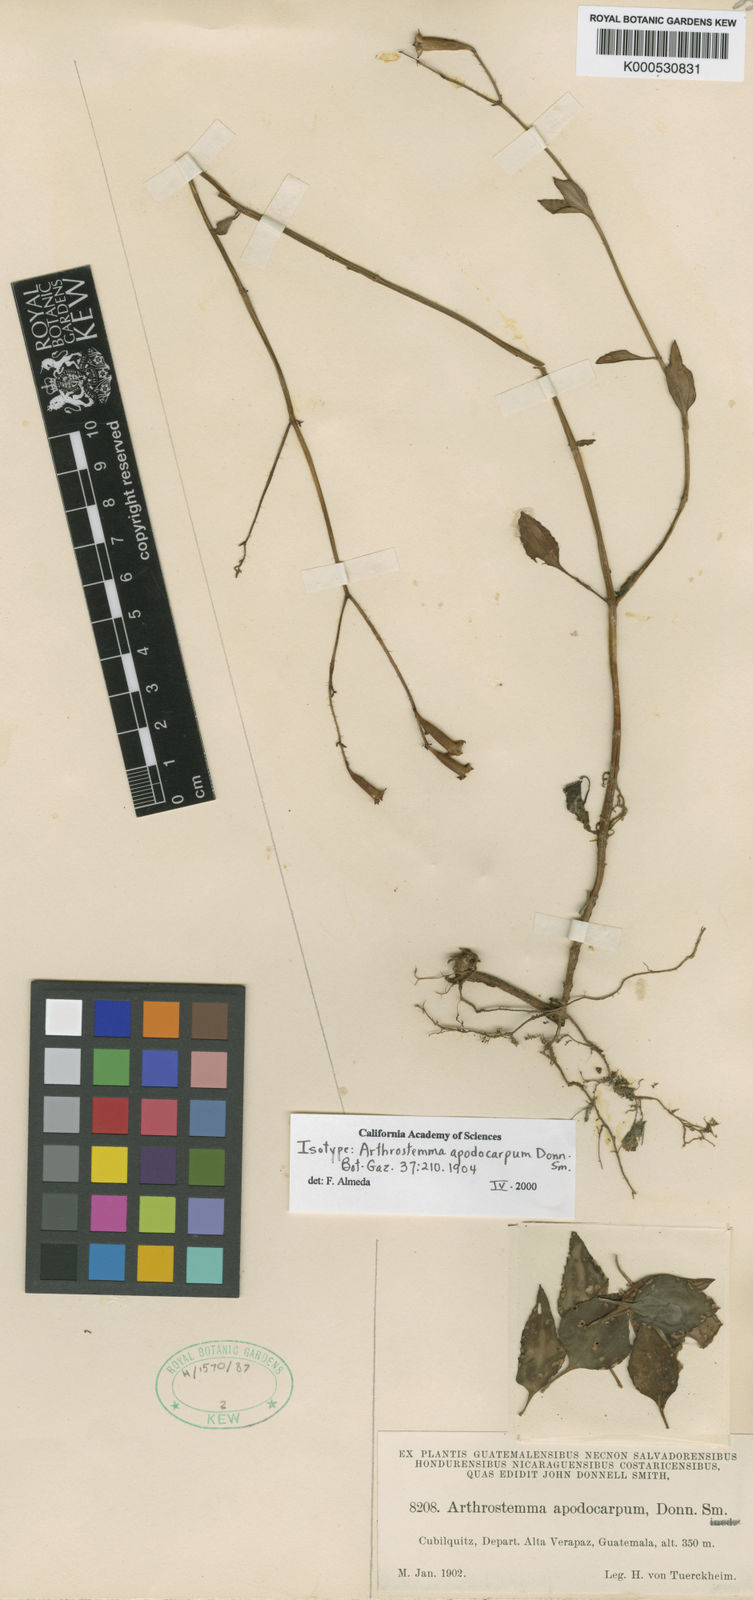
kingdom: Plantae
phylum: Tracheophyta
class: Magnoliopsida
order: Myrtales
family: Melastomataceae
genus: Arthrostemma
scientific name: Arthrostemma parvifolium
